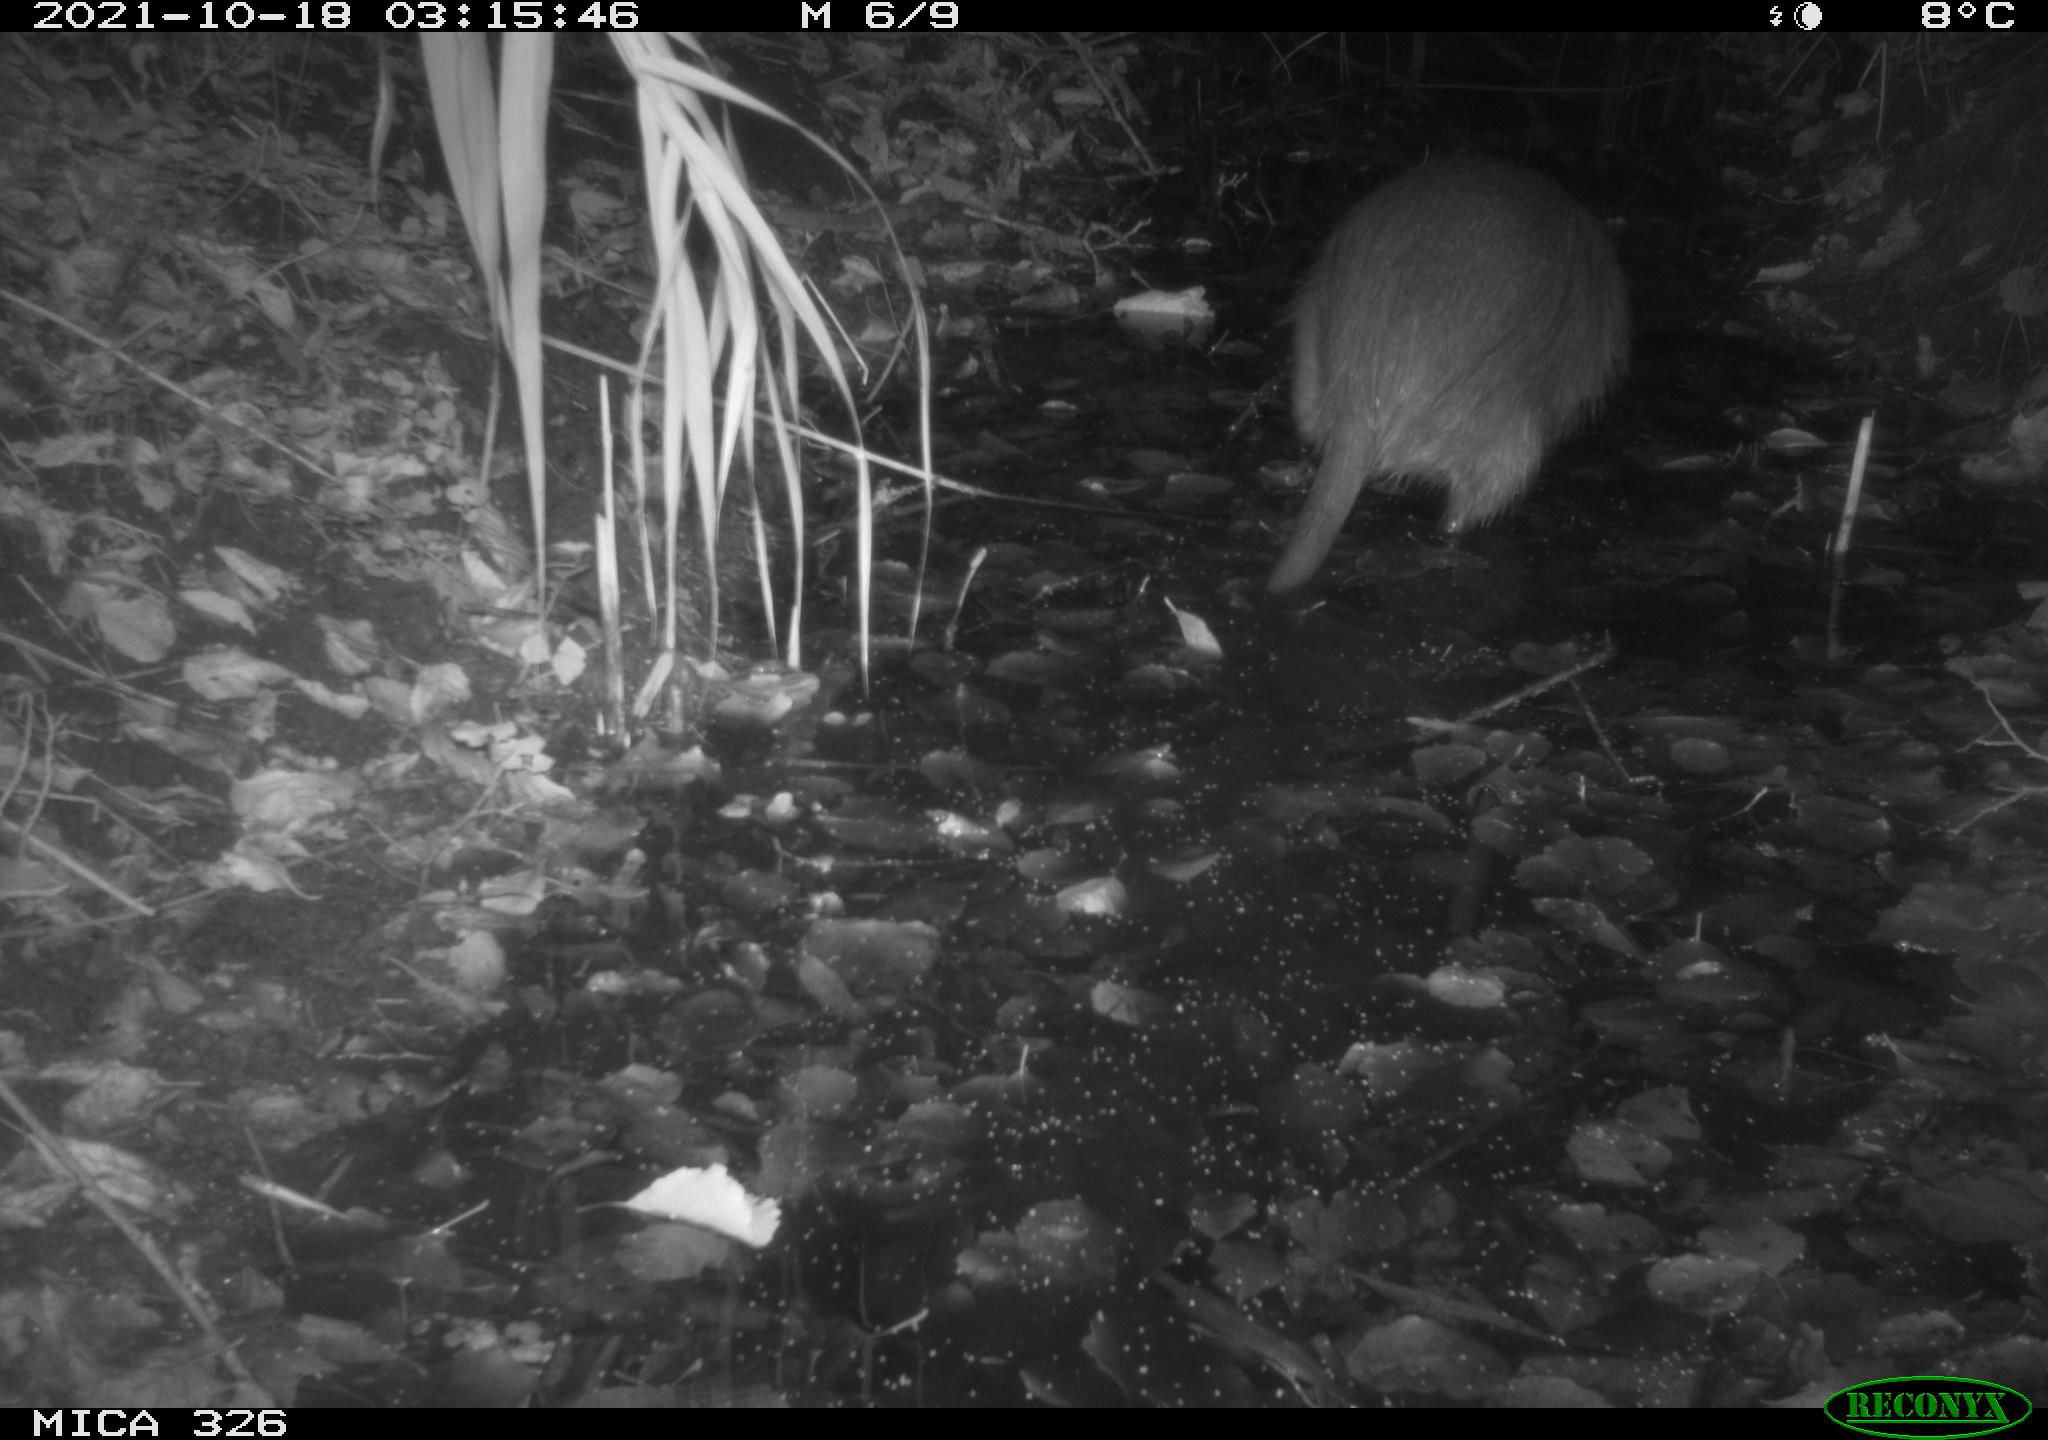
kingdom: Animalia
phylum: Chordata
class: Mammalia
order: Rodentia
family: Myocastoridae
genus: Myocastor
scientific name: Myocastor coypus
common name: Coypu
